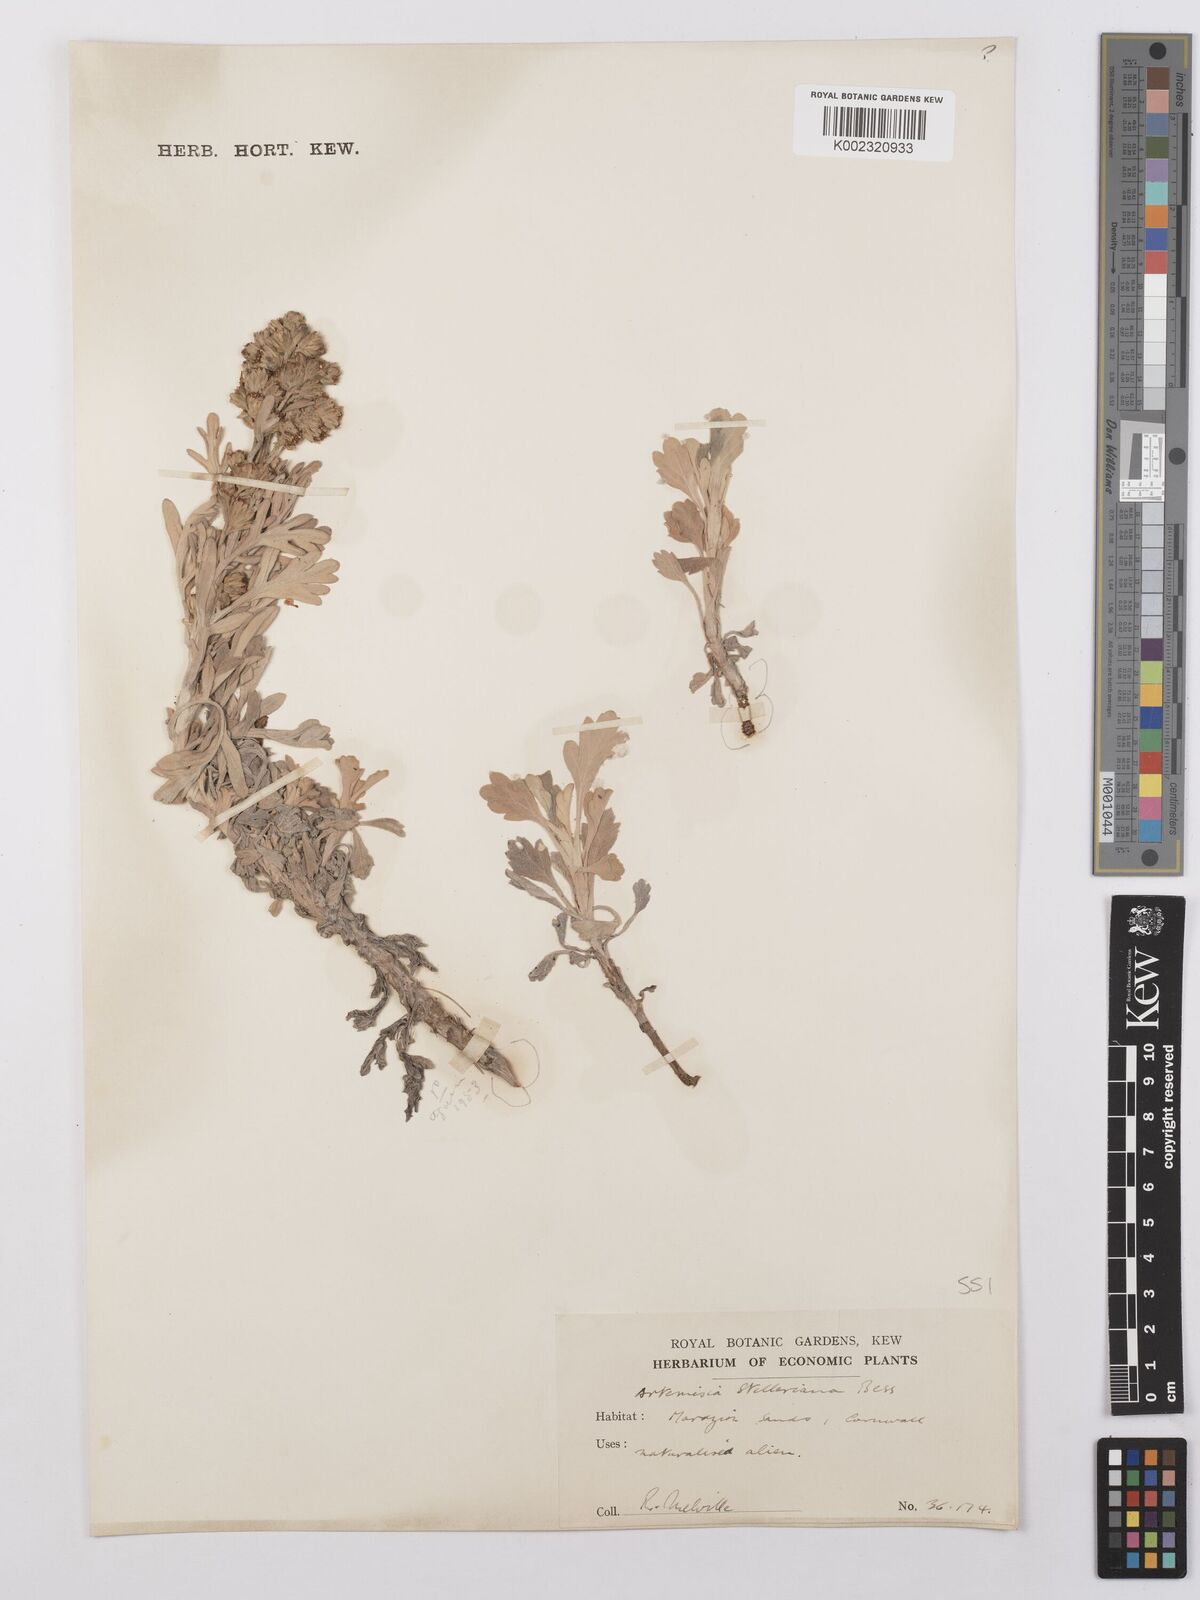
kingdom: Plantae
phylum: Tracheophyta
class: Magnoliopsida
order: Asterales
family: Asteraceae
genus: Artemisia
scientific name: Artemisia stelleriana
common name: Beach wormwood
